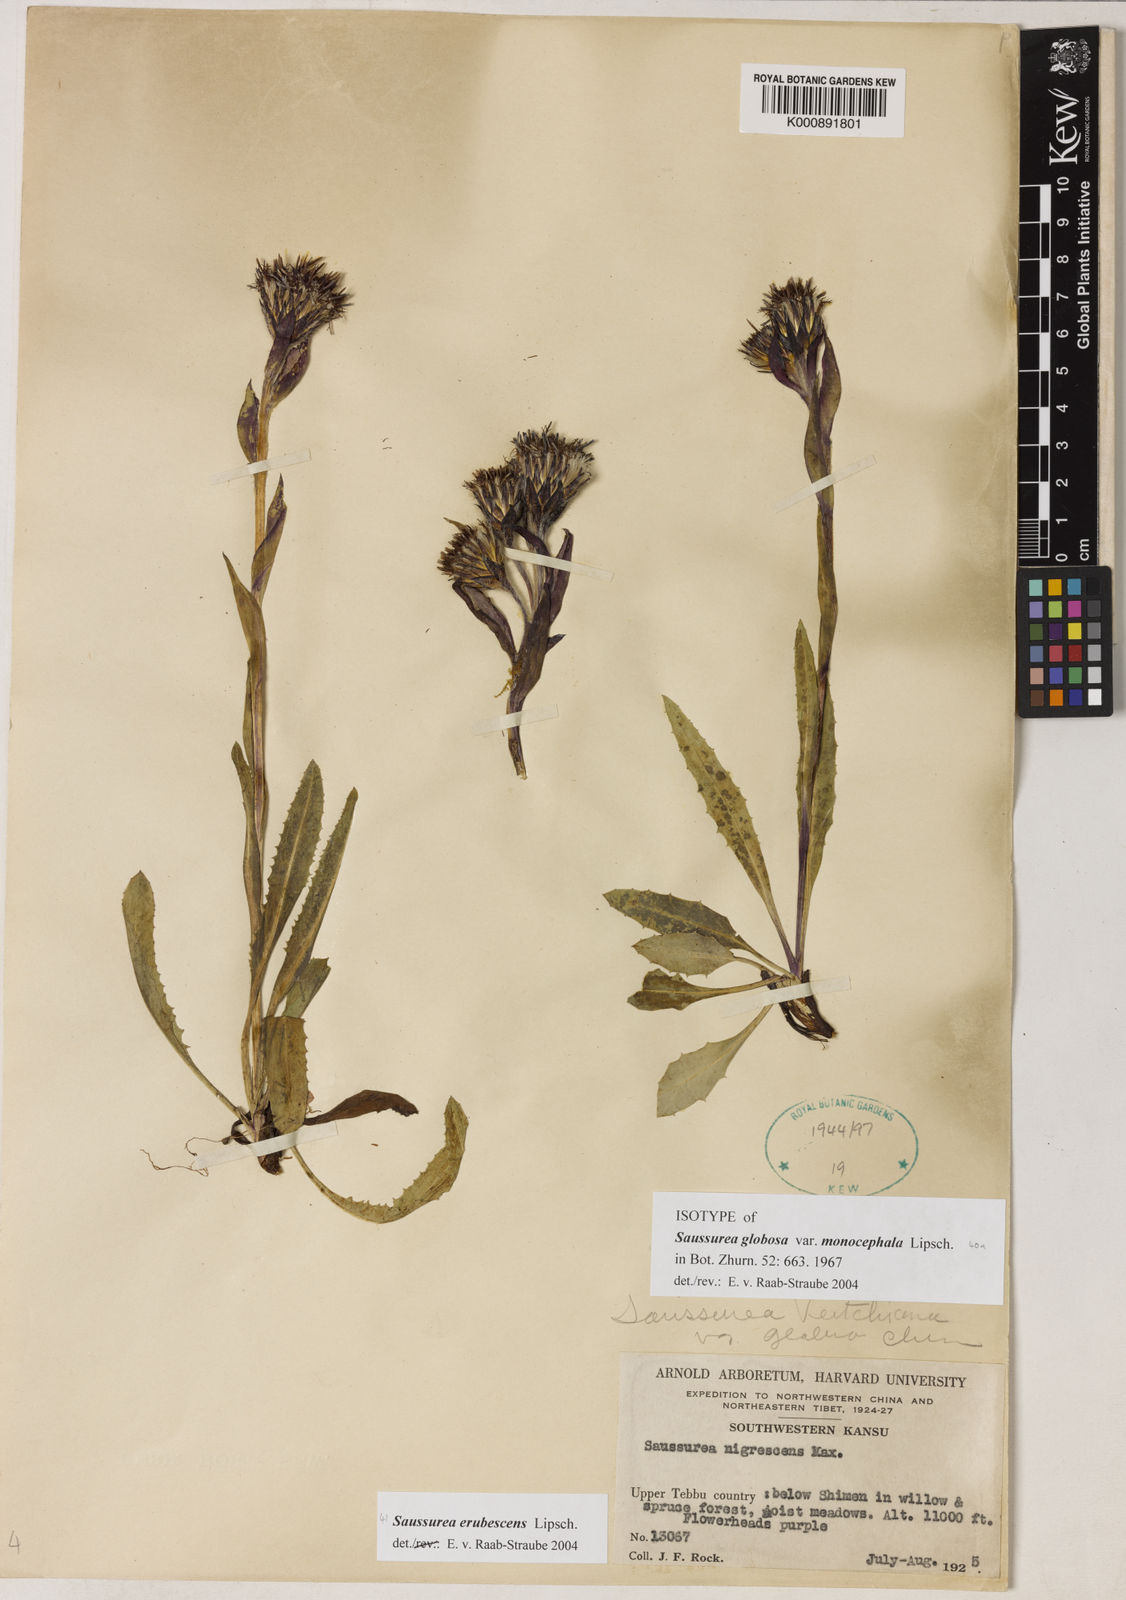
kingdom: Plantae
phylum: Tracheophyta
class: Magnoliopsida
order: Asterales
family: Asteraceae
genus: Saussurea
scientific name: Saussurea erubescens
